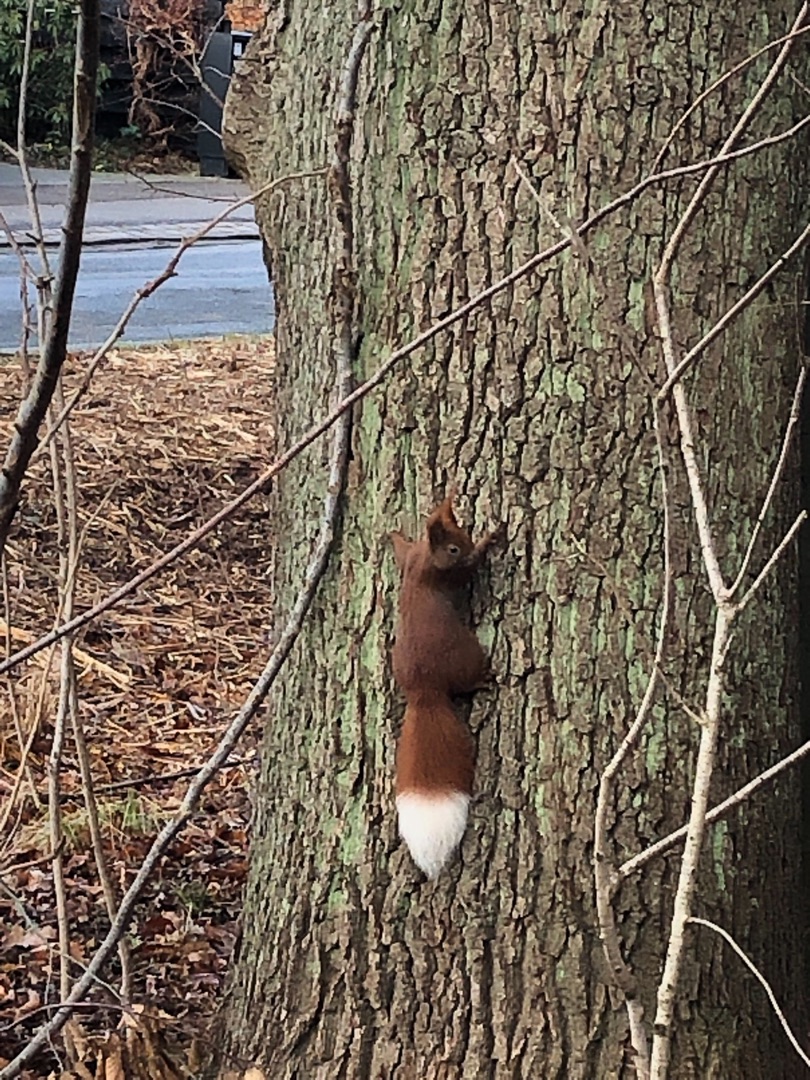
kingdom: Animalia
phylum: Chordata
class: Mammalia
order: Rodentia
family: Sciuridae
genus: Sciurus
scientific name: Sciurus vulgaris
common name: Egern
